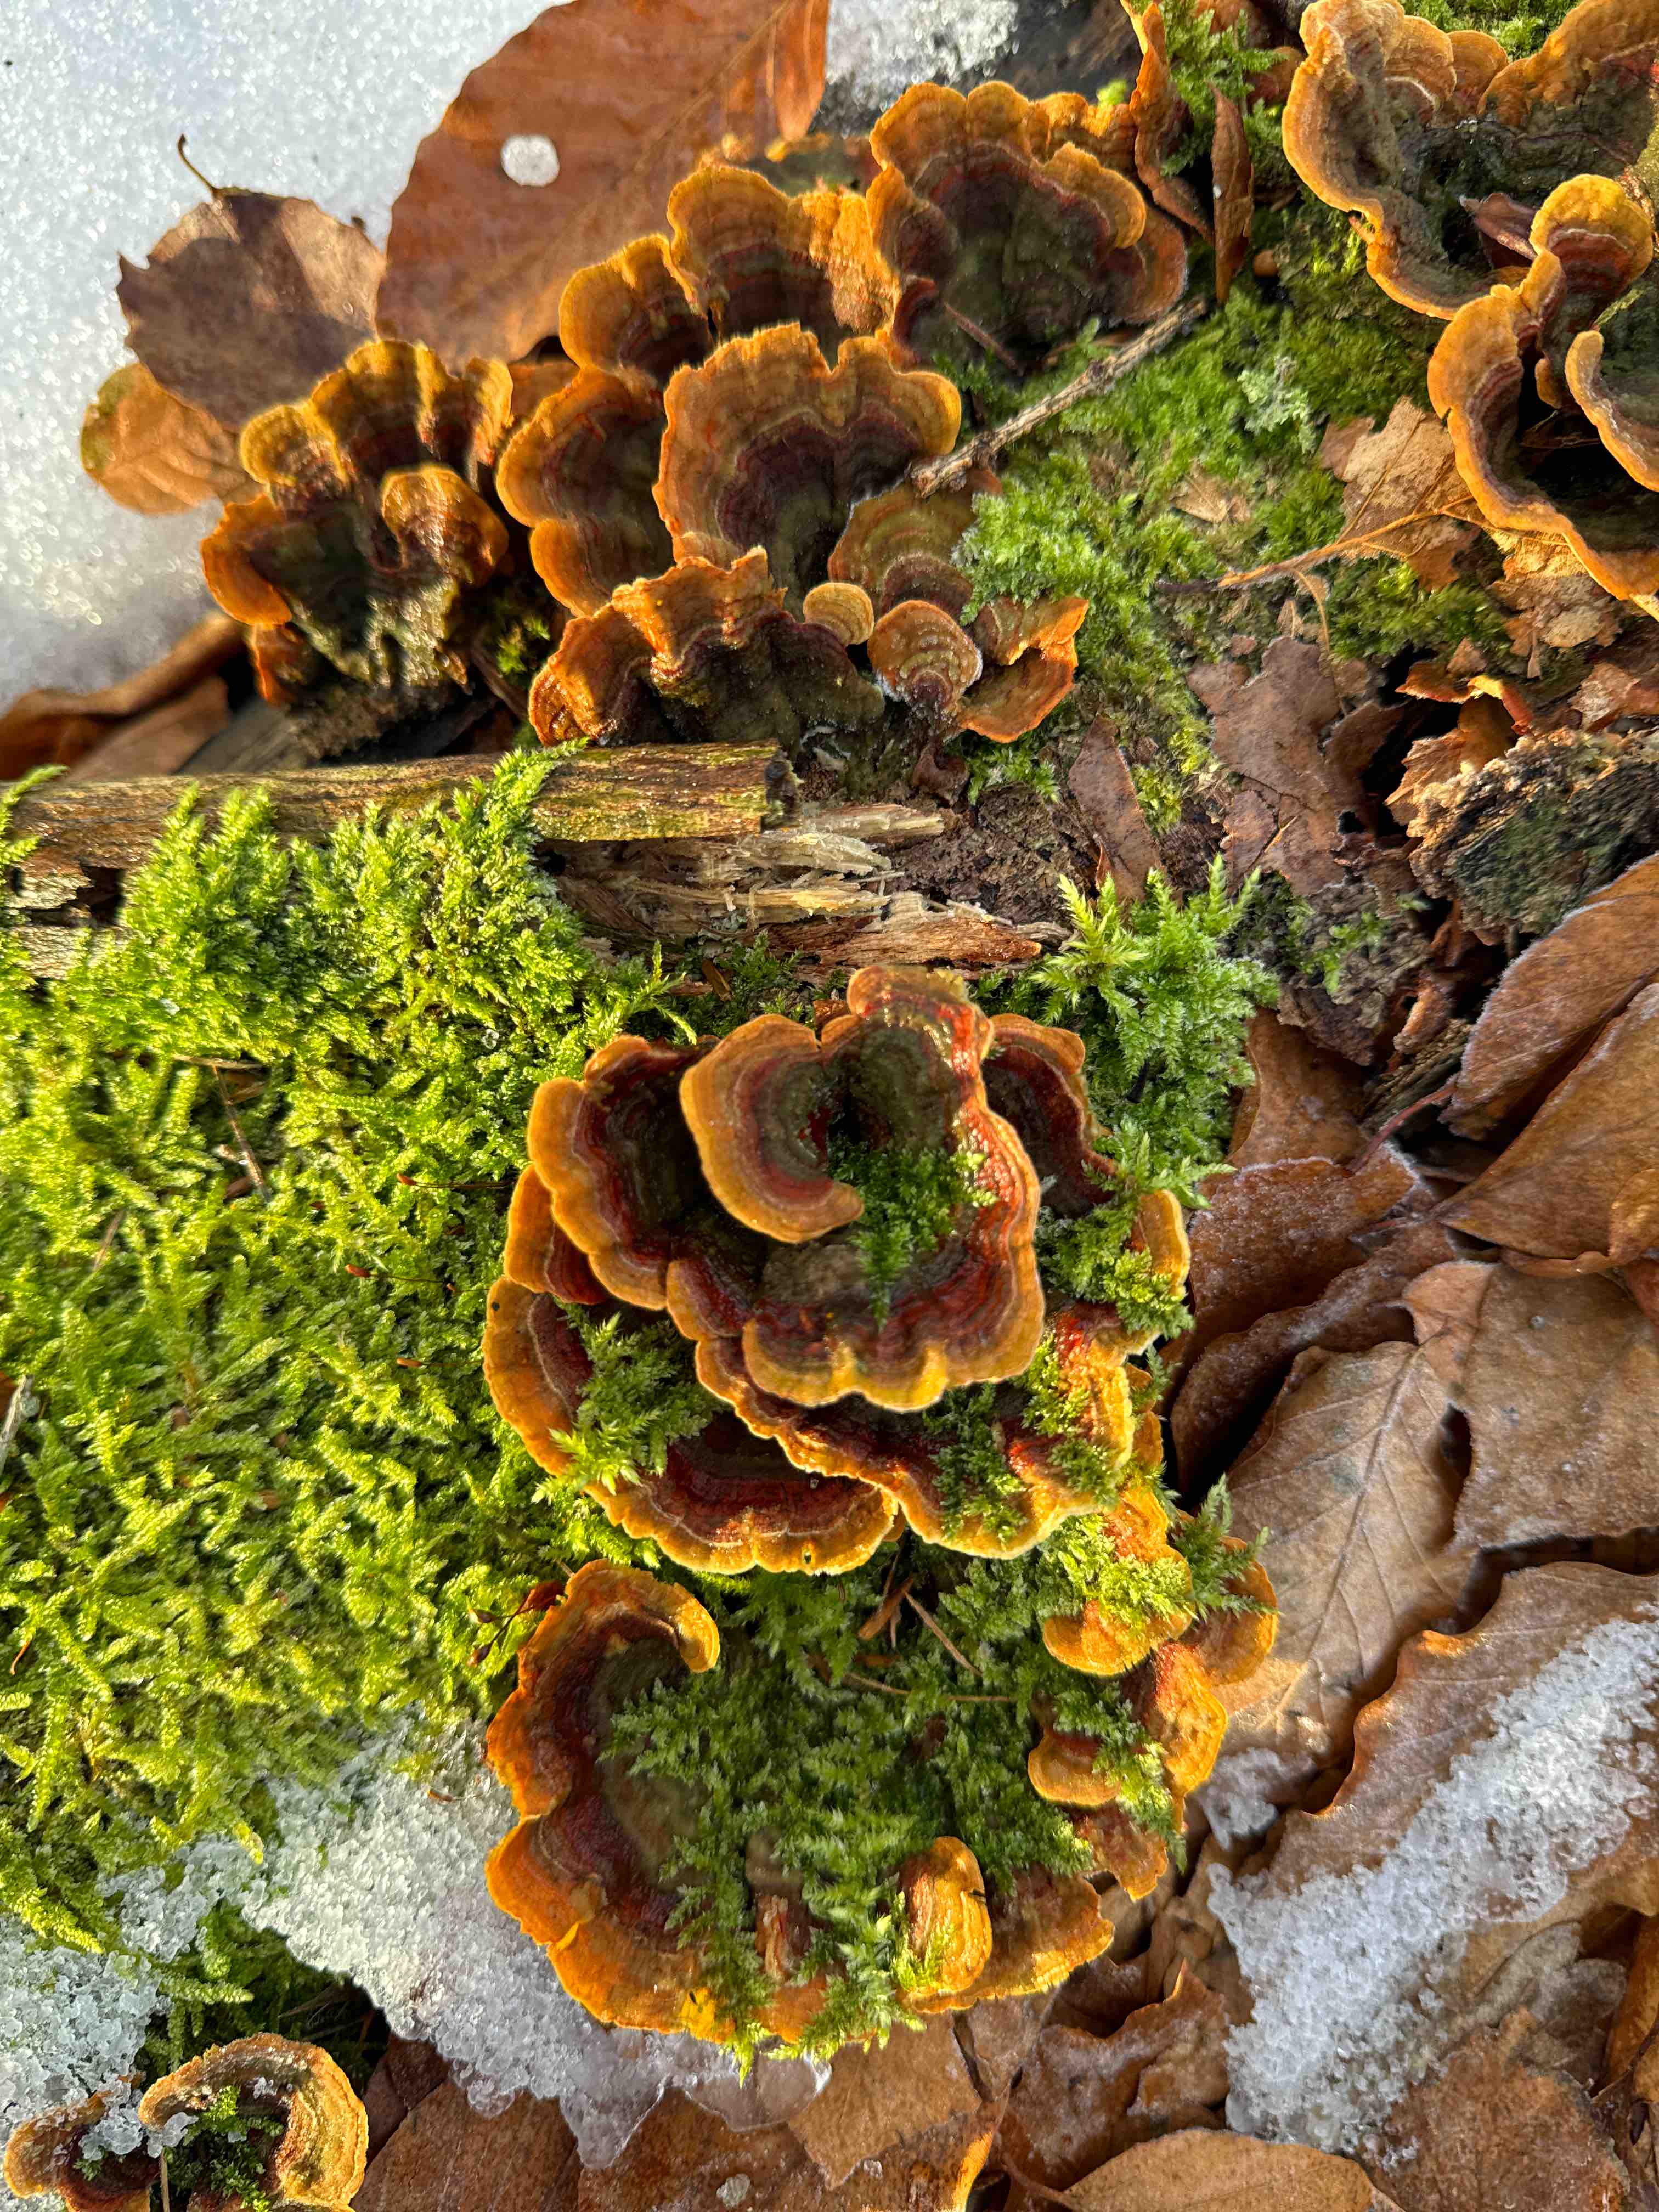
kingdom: Fungi
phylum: Basidiomycota
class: Agaricomycetes
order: Russulales
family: Stereaceae
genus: Stereum
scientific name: Stereum subtomentosum
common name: smuk lædersvamp
